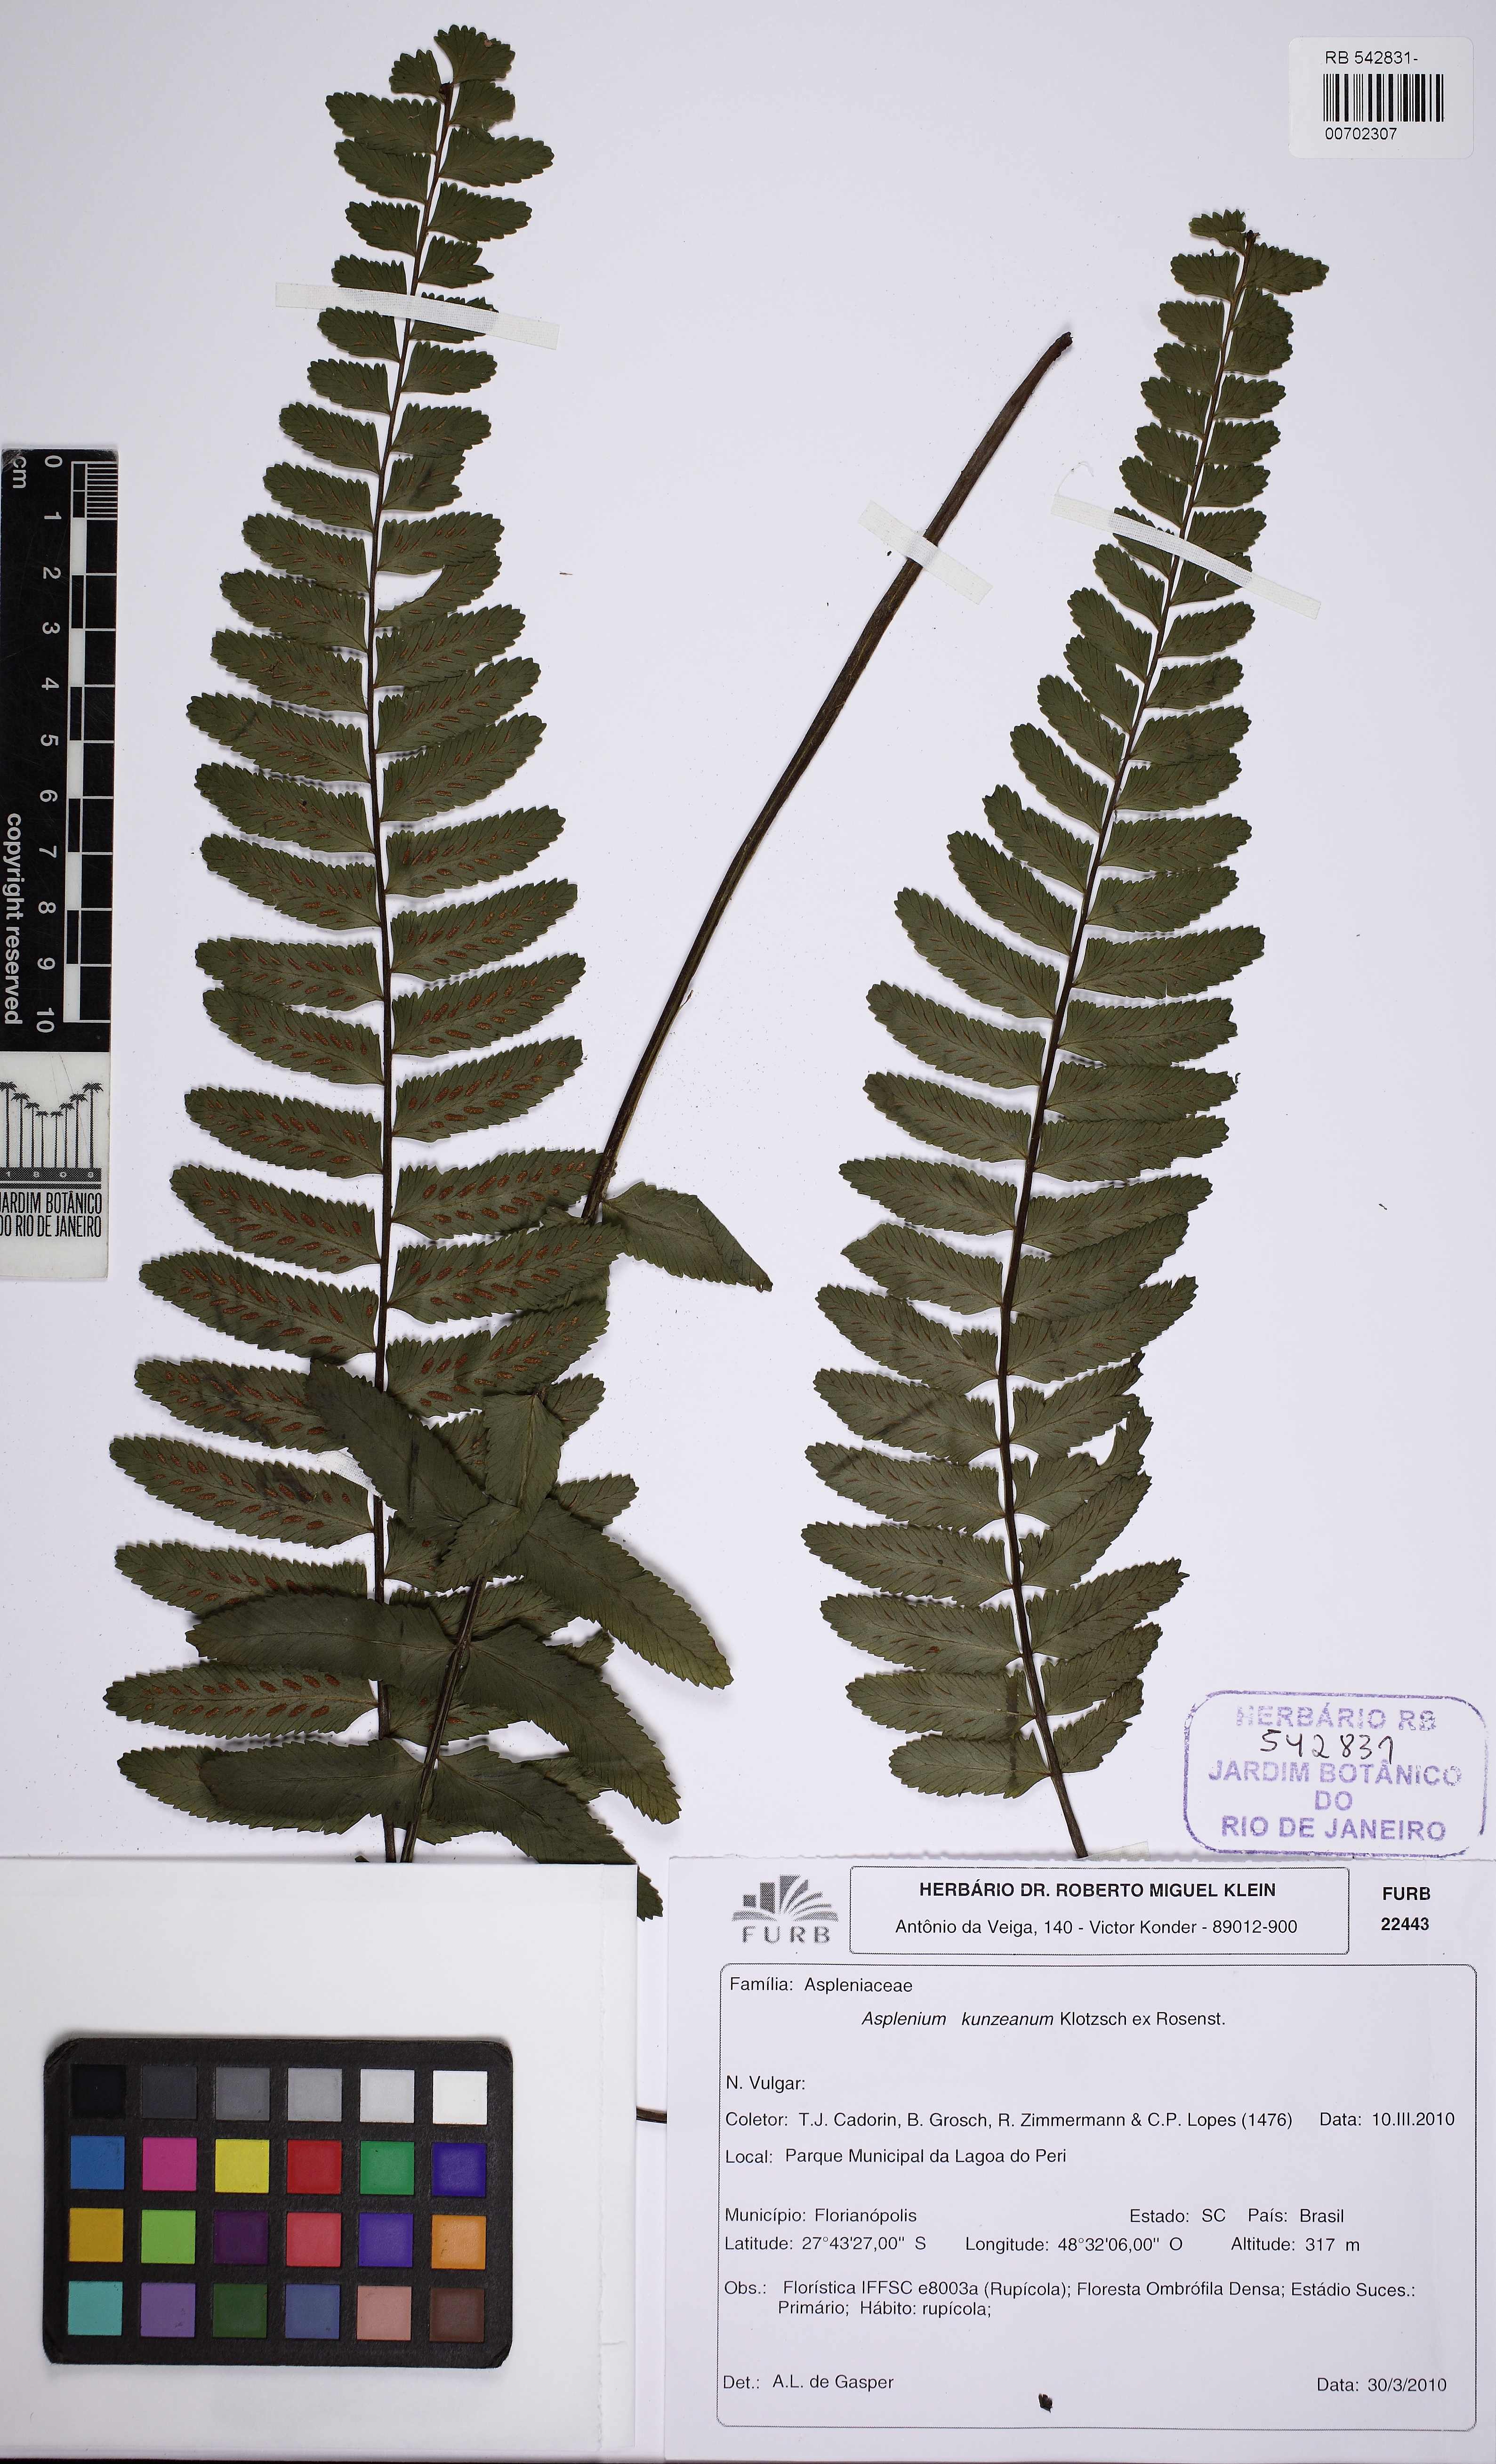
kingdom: Plantae
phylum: Tracheophyta
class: Polypodiopsida
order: Polypodiales
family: Aspleniaceae
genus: Asplenium
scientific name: Asplenium kunzeanum
